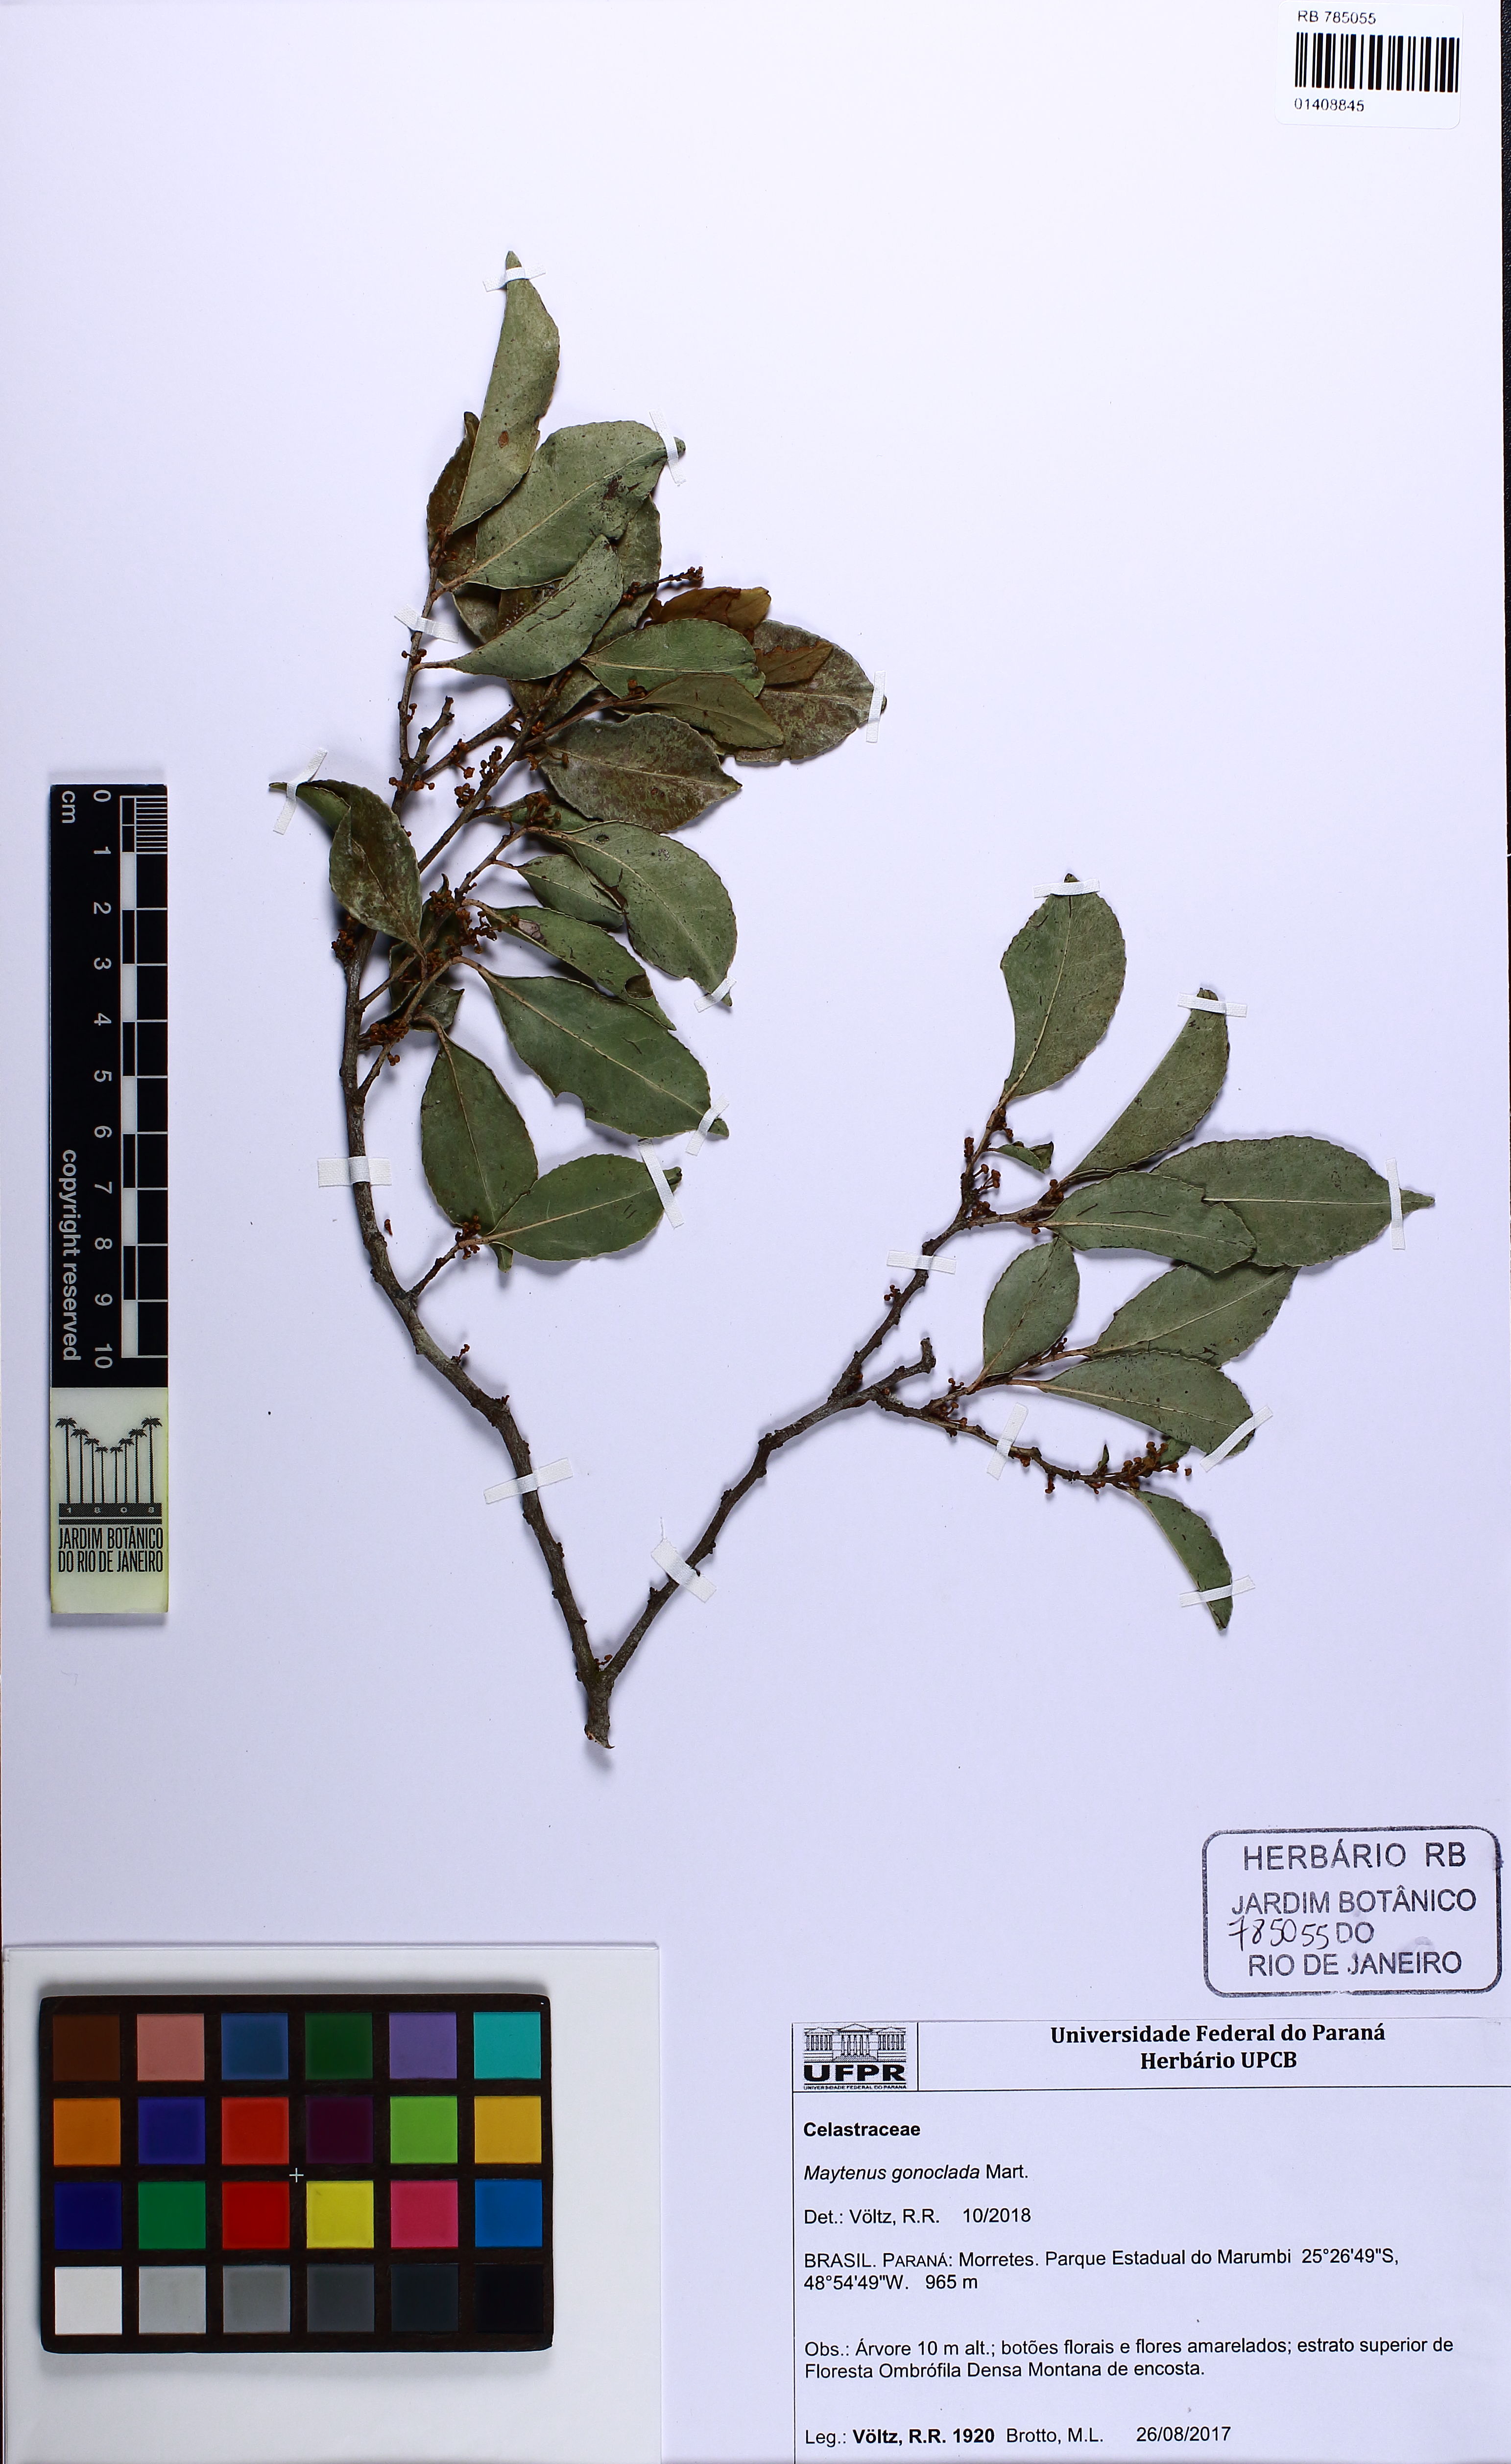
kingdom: Plantae
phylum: Tracheophyta
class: Magnoliopsida
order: Celastrales
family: Celastraceae
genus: Monteverdia
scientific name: Monteverdia gonoclada
